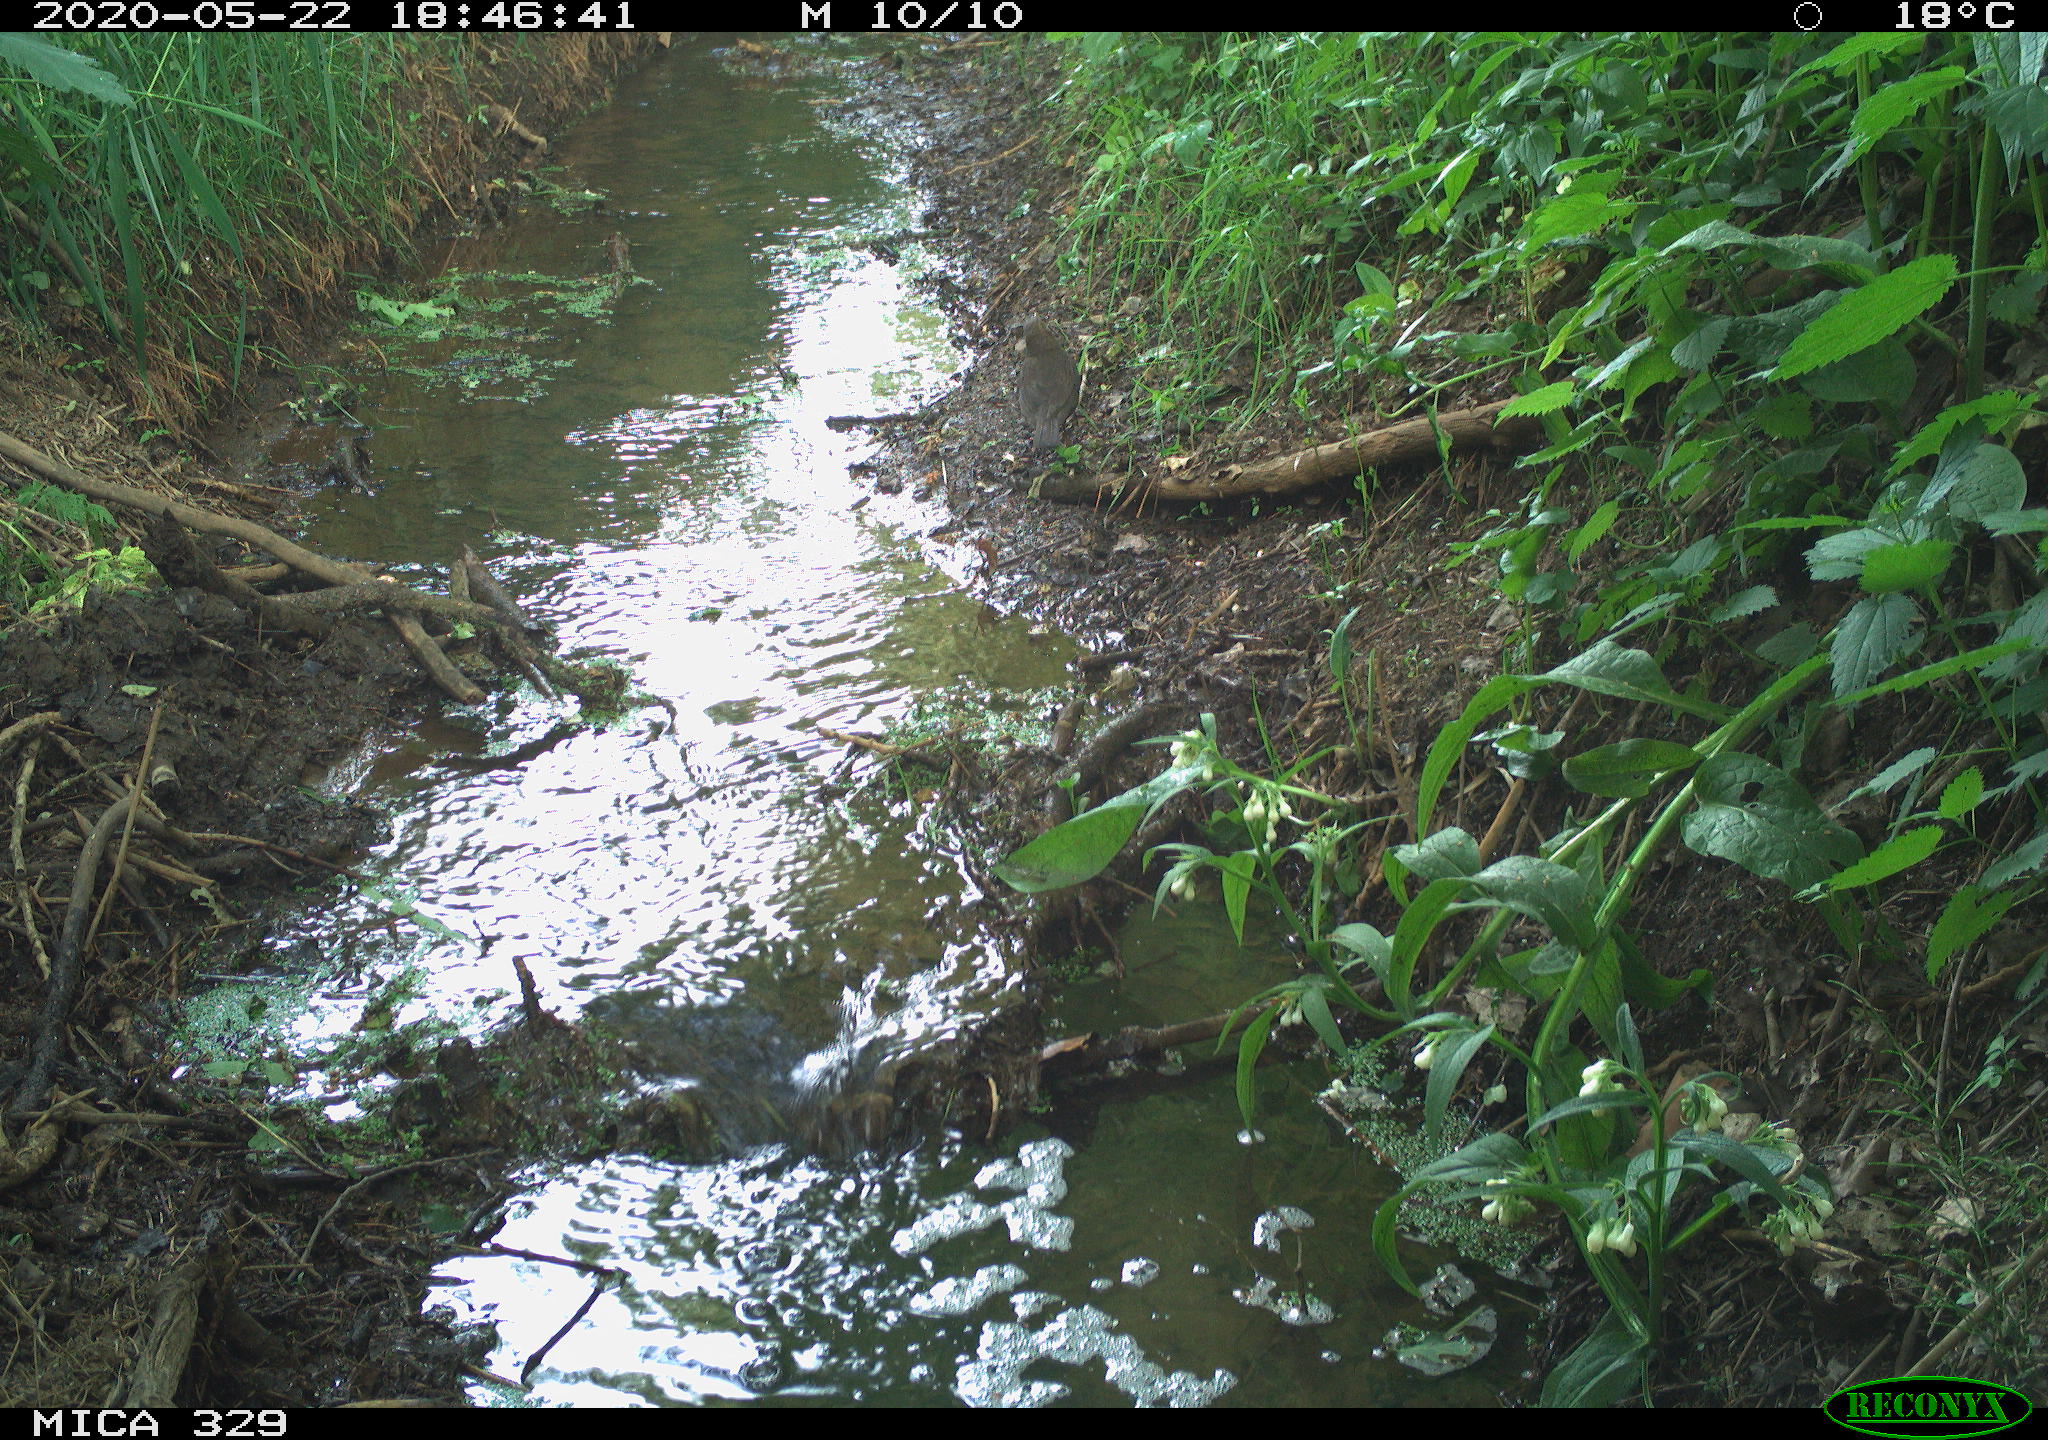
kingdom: Animalia
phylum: Chordata
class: Aves
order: Passeriformes
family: Turdidae
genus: Turdus
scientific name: Turdus merula
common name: Common blackbird
